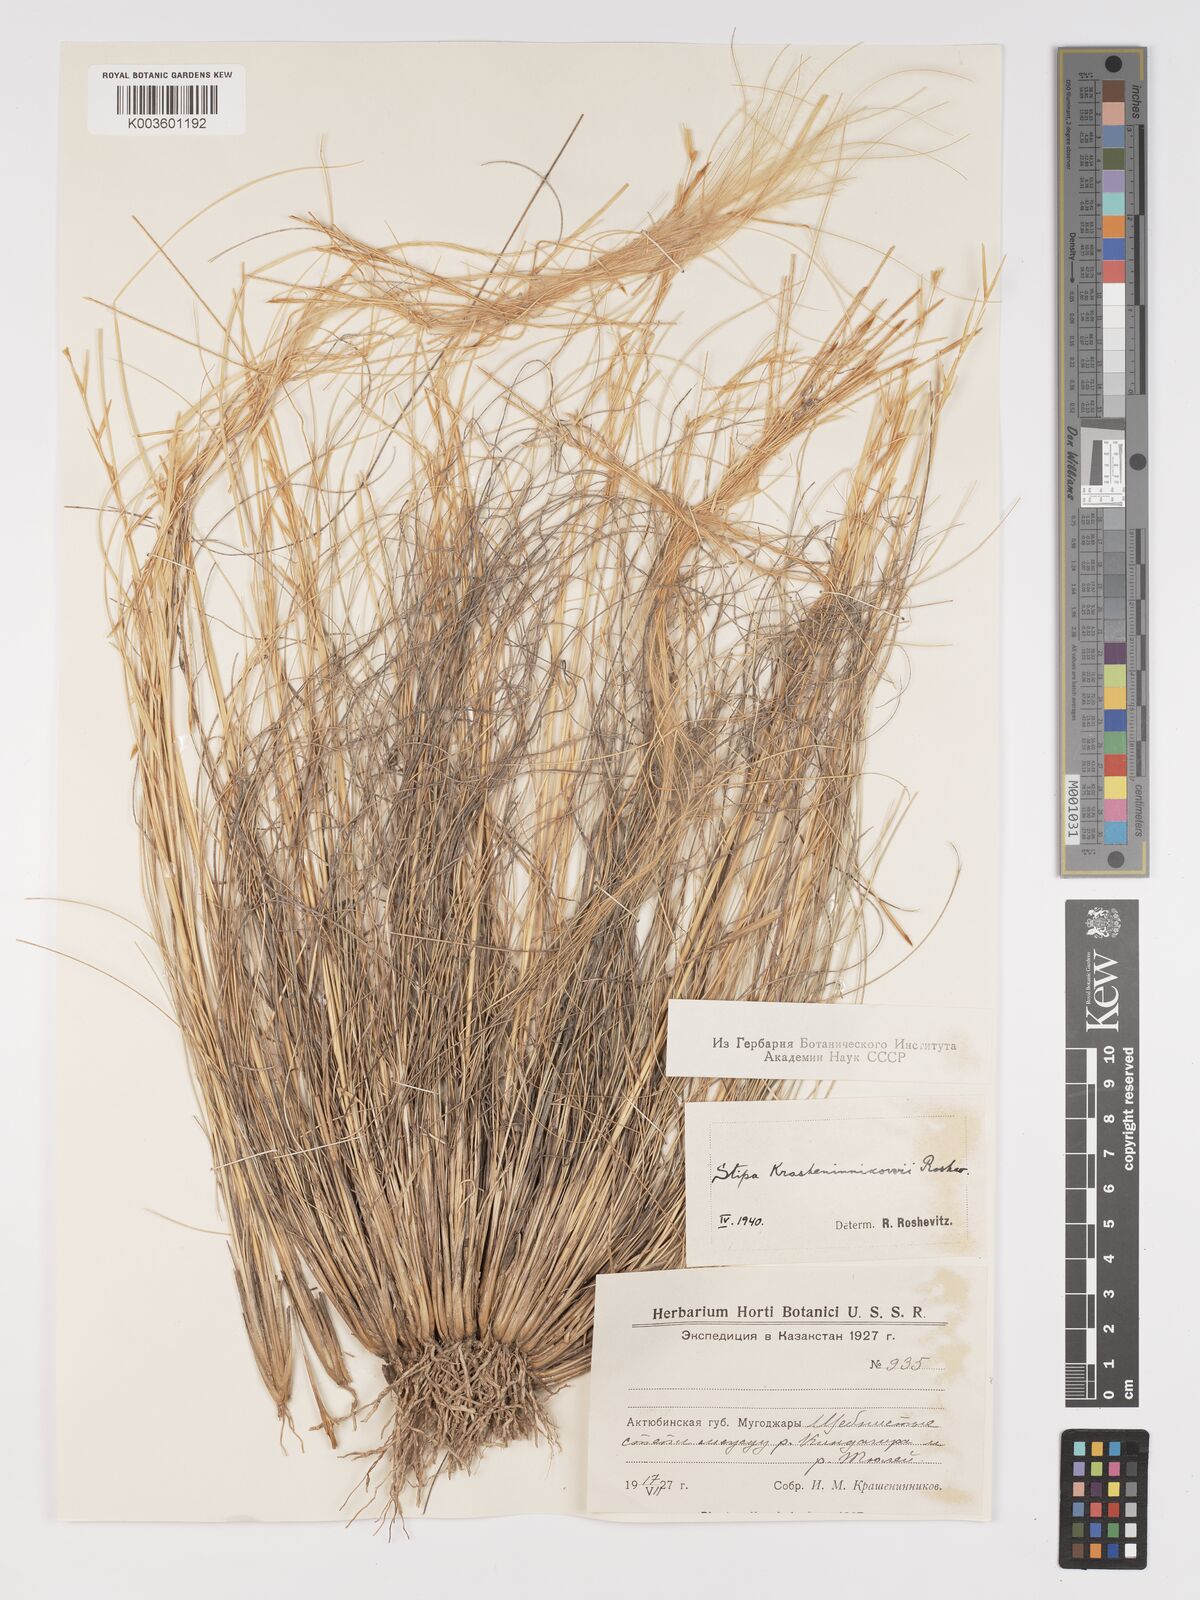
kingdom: Plantae
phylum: Tracheophyta
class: Liliopsida
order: Poales
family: Poaceae
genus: Stipa
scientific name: Stipa
